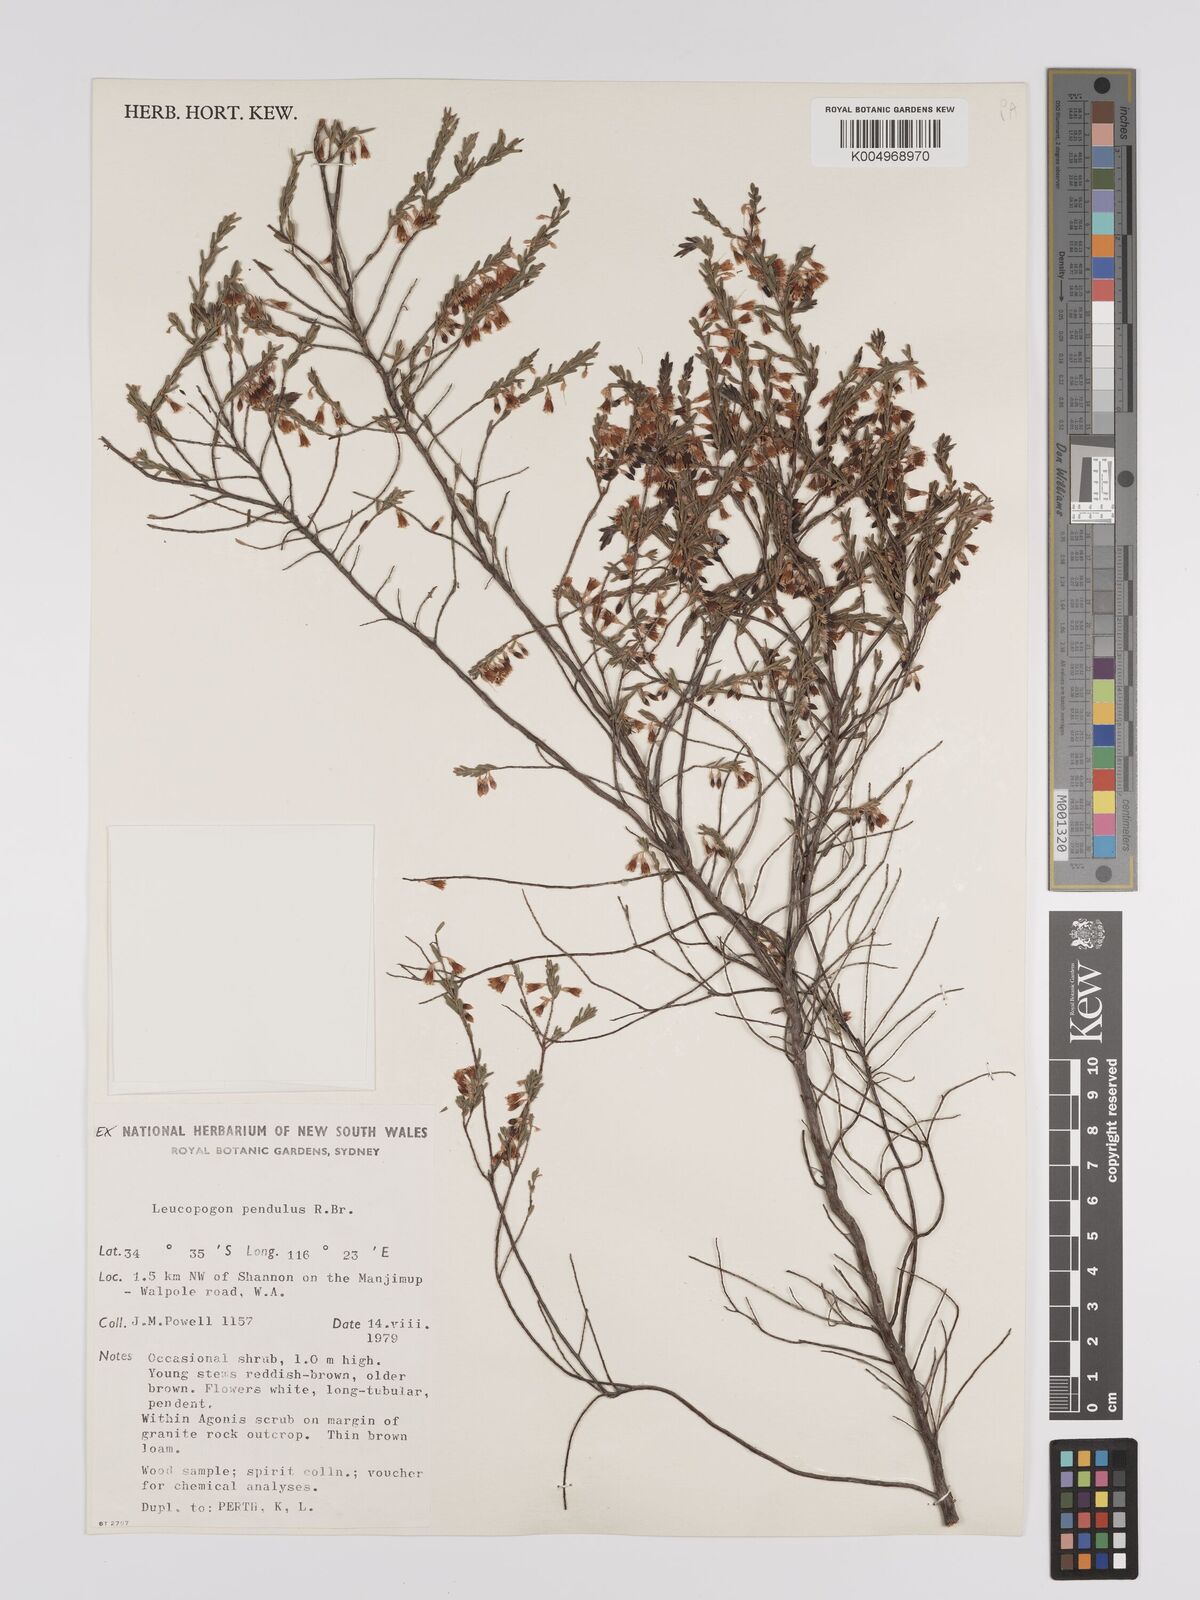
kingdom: Plantae
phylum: Tracheophyta
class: Magnoliopsida
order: Ericales
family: Ericaceae
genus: Styphelia
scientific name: Styphelia pendula
